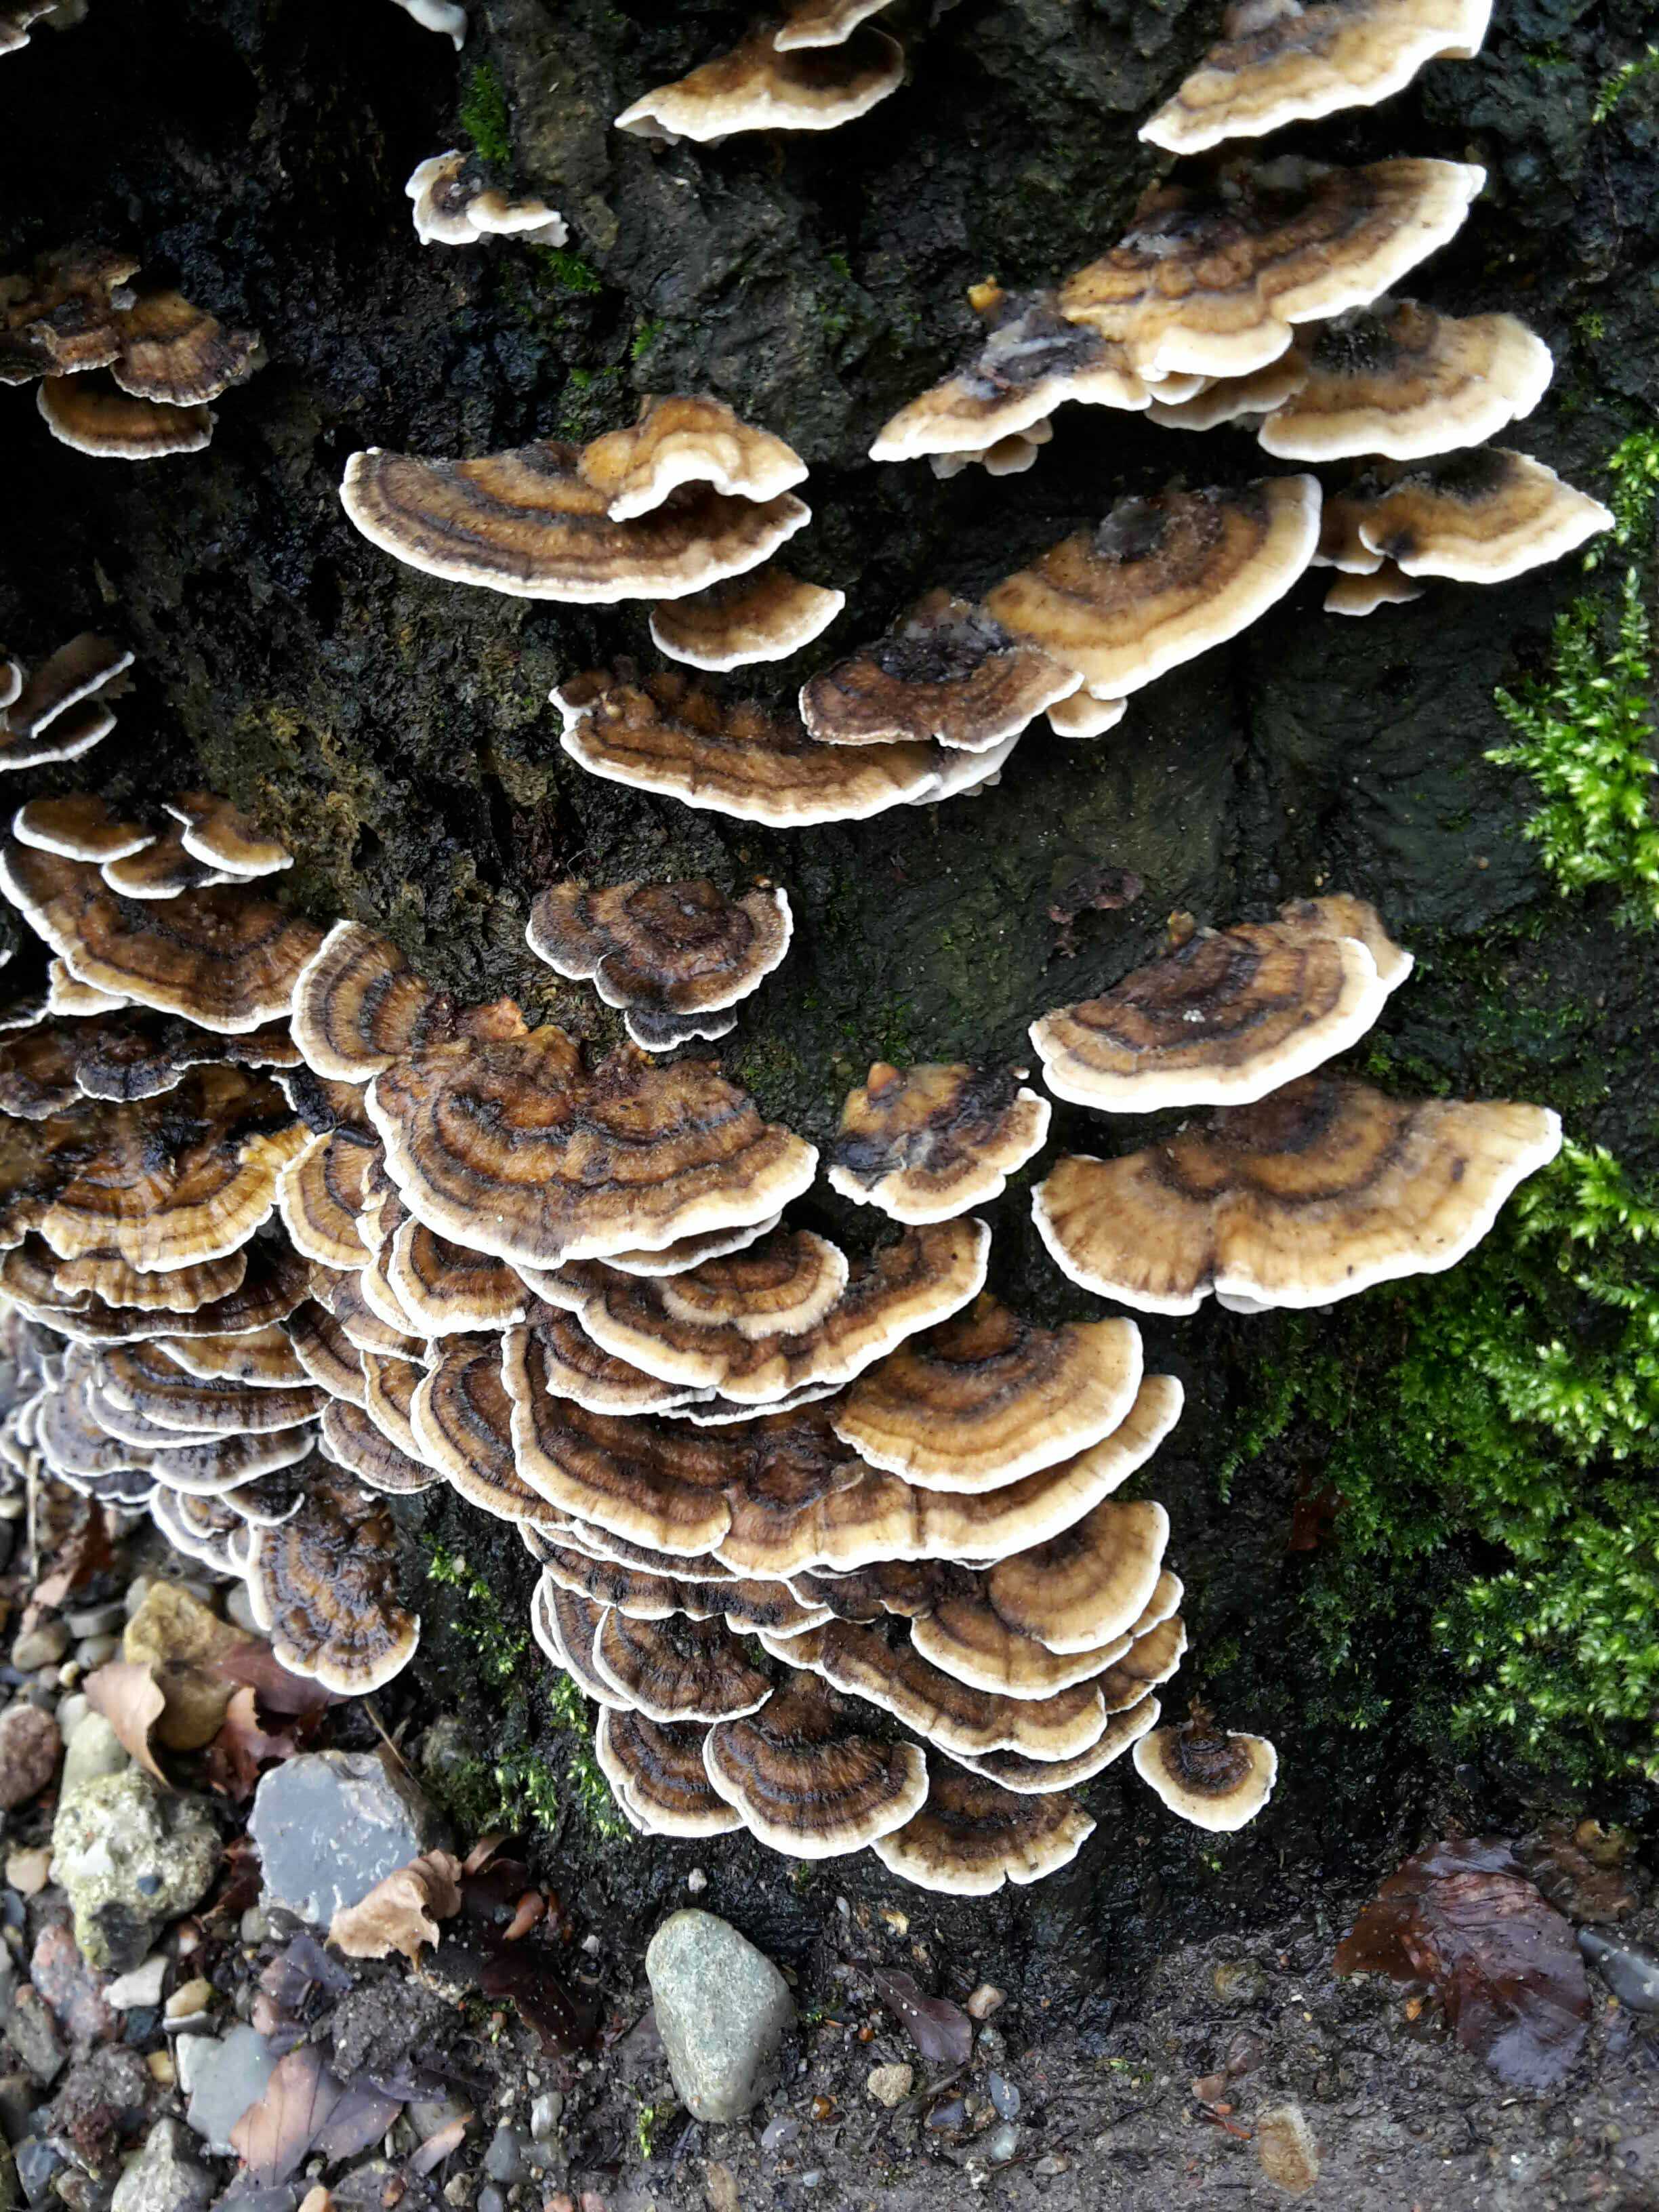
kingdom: Fungi
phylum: Basidiomycota
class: Agaricomycetes
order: Polyporales
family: Phanerochaetaceae
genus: Bjerkandera
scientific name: Bjerkandera adusta
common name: sveden sodporesvamp
